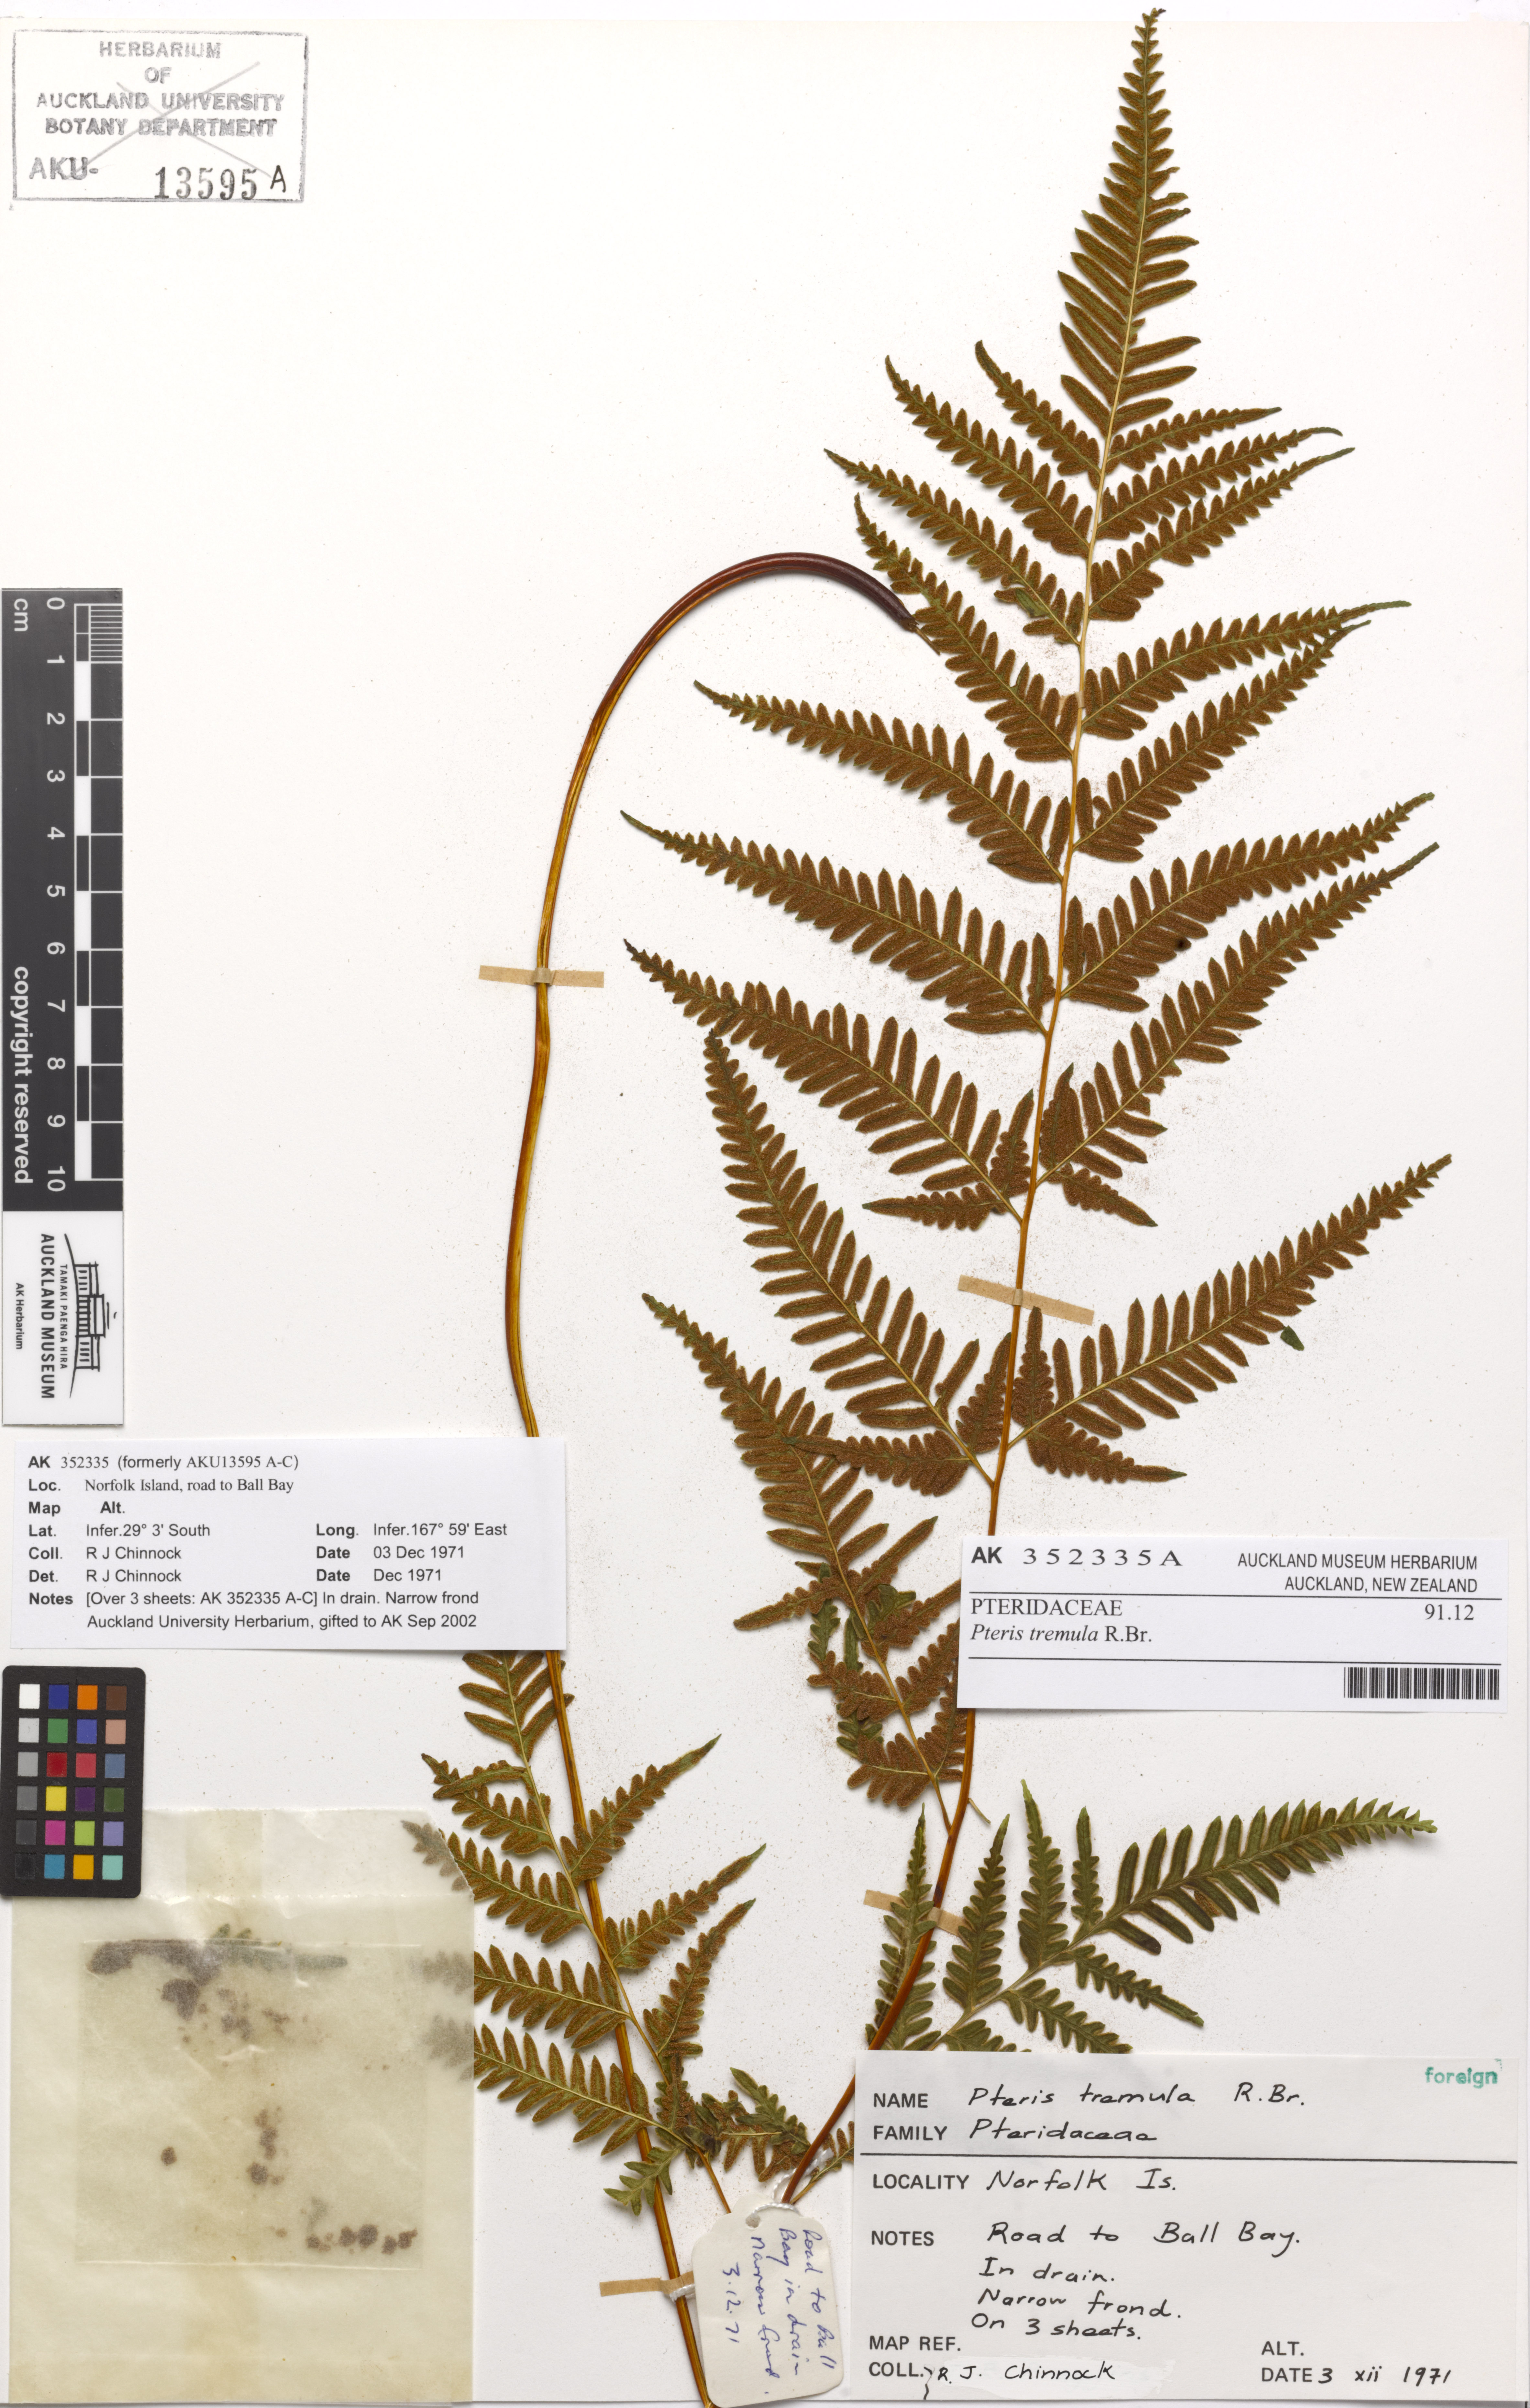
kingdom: Plantae
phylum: Tracheophyta
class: Polypodiopsida
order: Polypodiales
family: Pteridaceae
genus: Pteris
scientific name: Pteris tremula
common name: Australian brake
